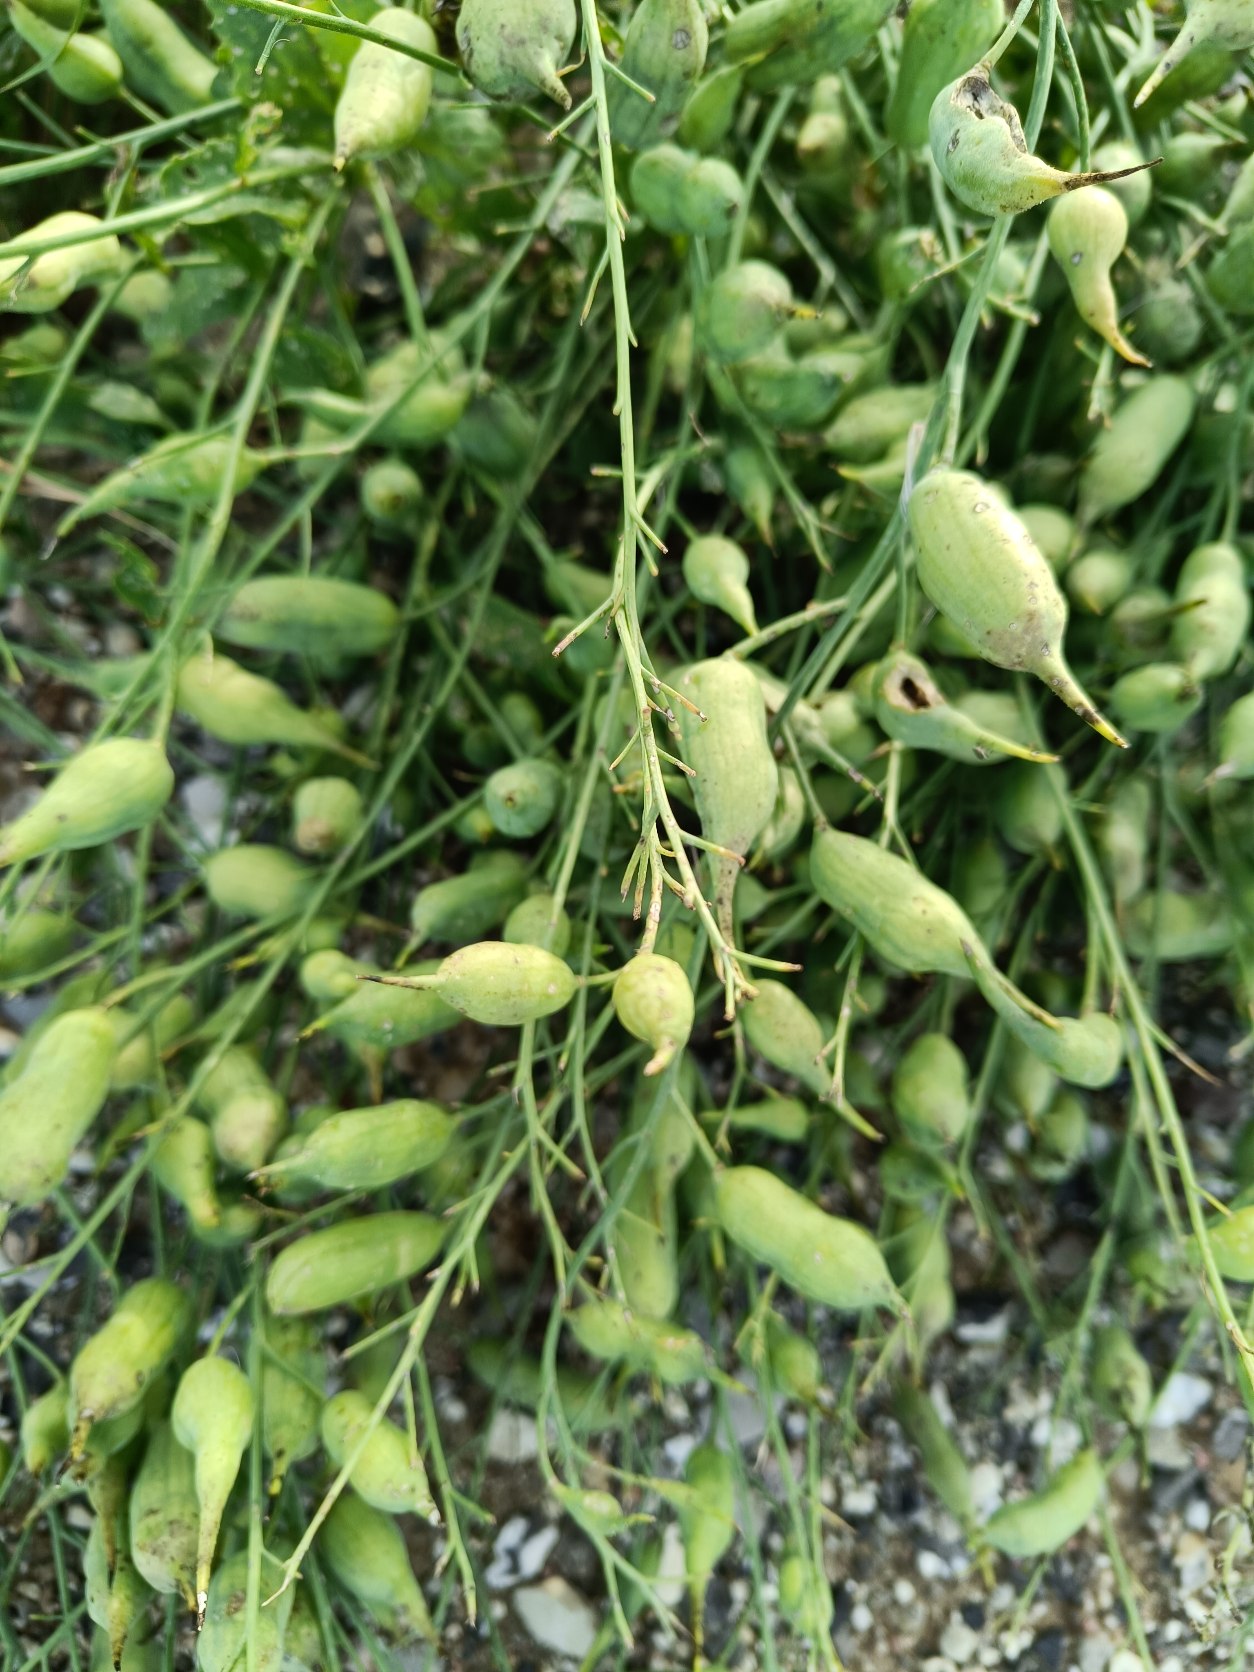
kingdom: Plantae
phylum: Tracheophyta
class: Magnoliopsida
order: Brassicales
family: Brassicaceae
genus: Raphanus
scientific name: Raphanus sativus
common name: Radise
